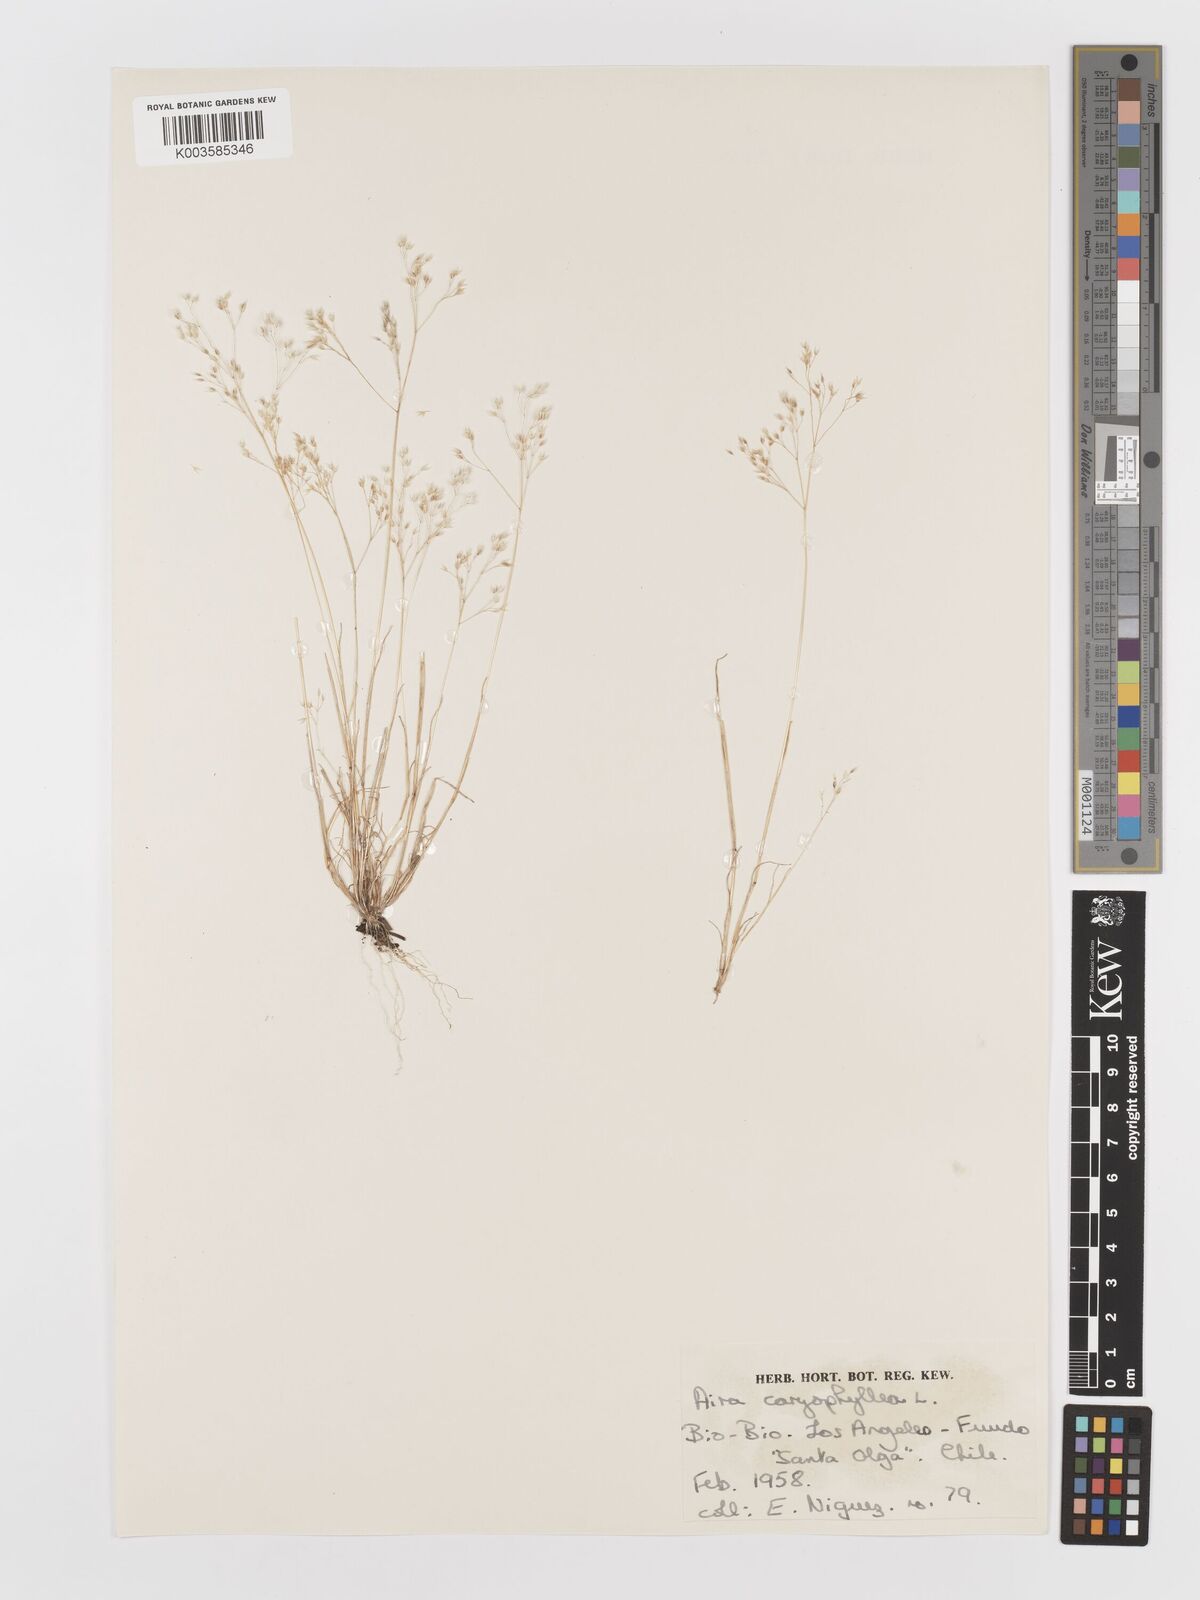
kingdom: Plantae
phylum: Tracheophyta
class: Liliopsida
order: Poales
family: Poaceae
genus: Aira
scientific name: Aira caryophyllea
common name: Silver hairgrass
